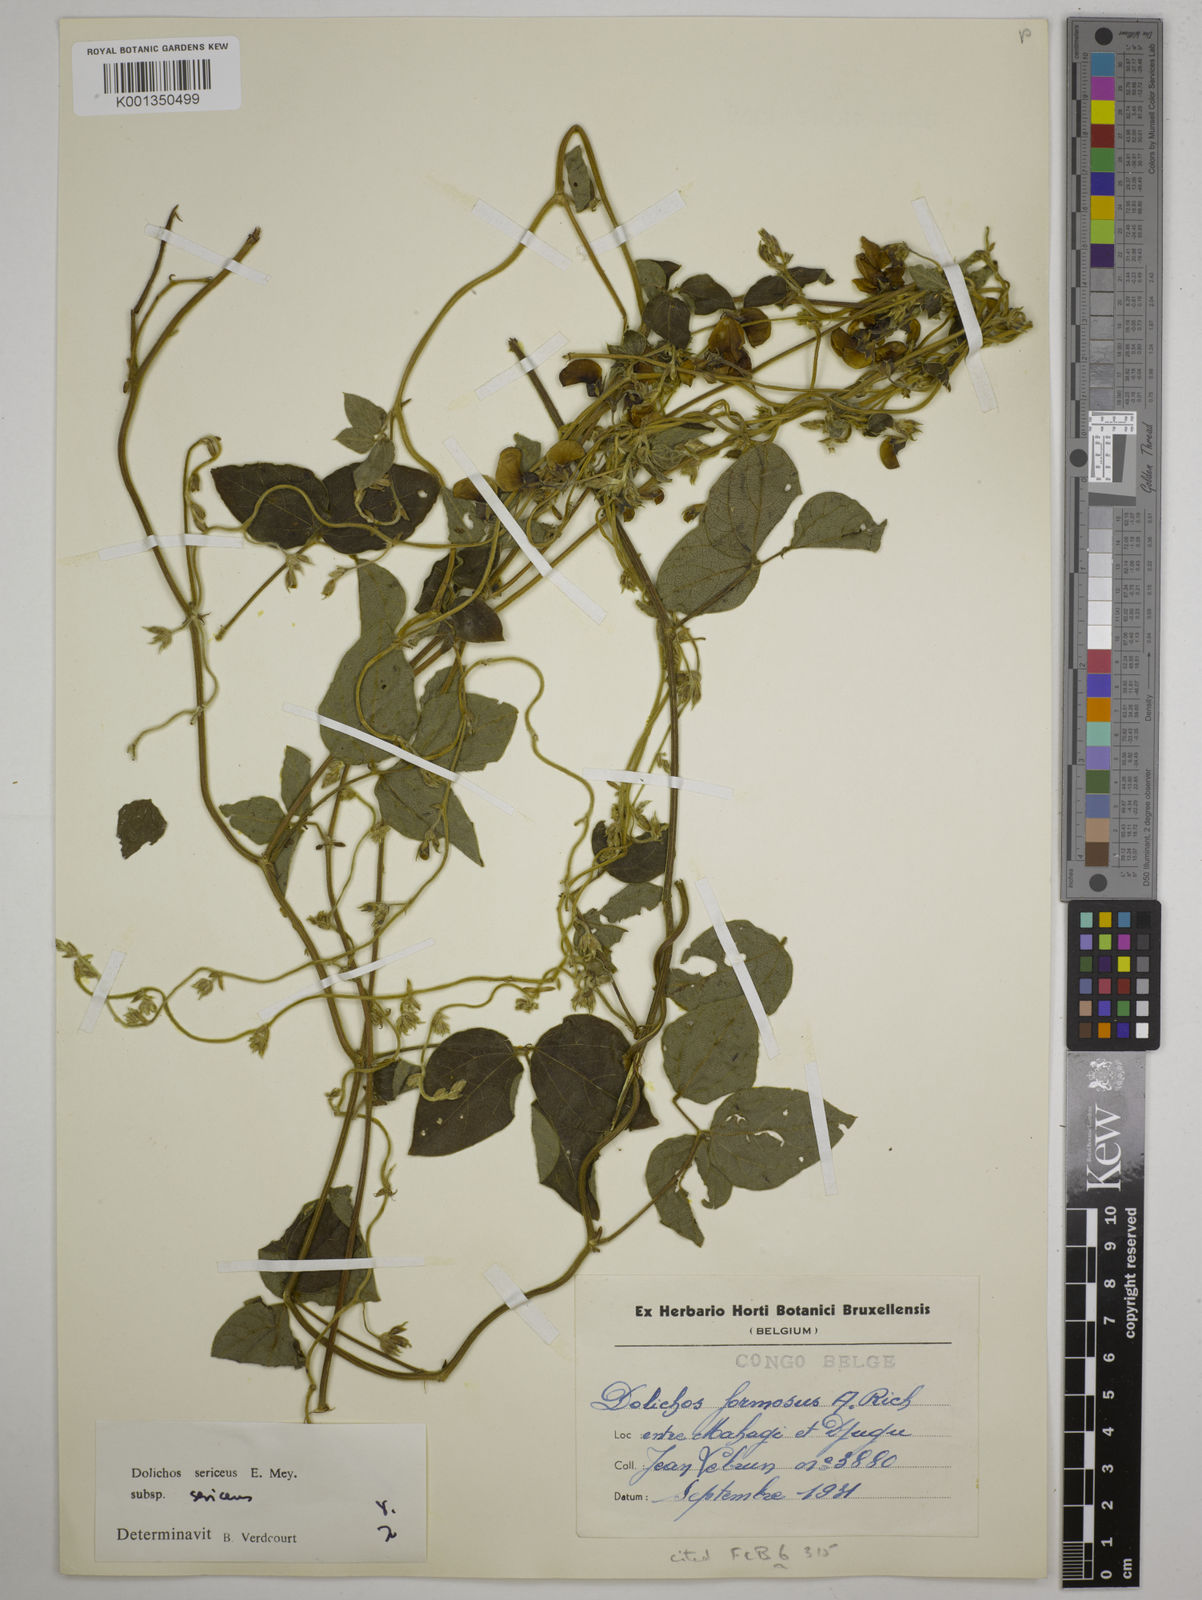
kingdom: Plantae
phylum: Tracheophyta
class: Magnoliopsida
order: Fabales
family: Fabaceae
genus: Dolichos
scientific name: Dolichos sericeus
